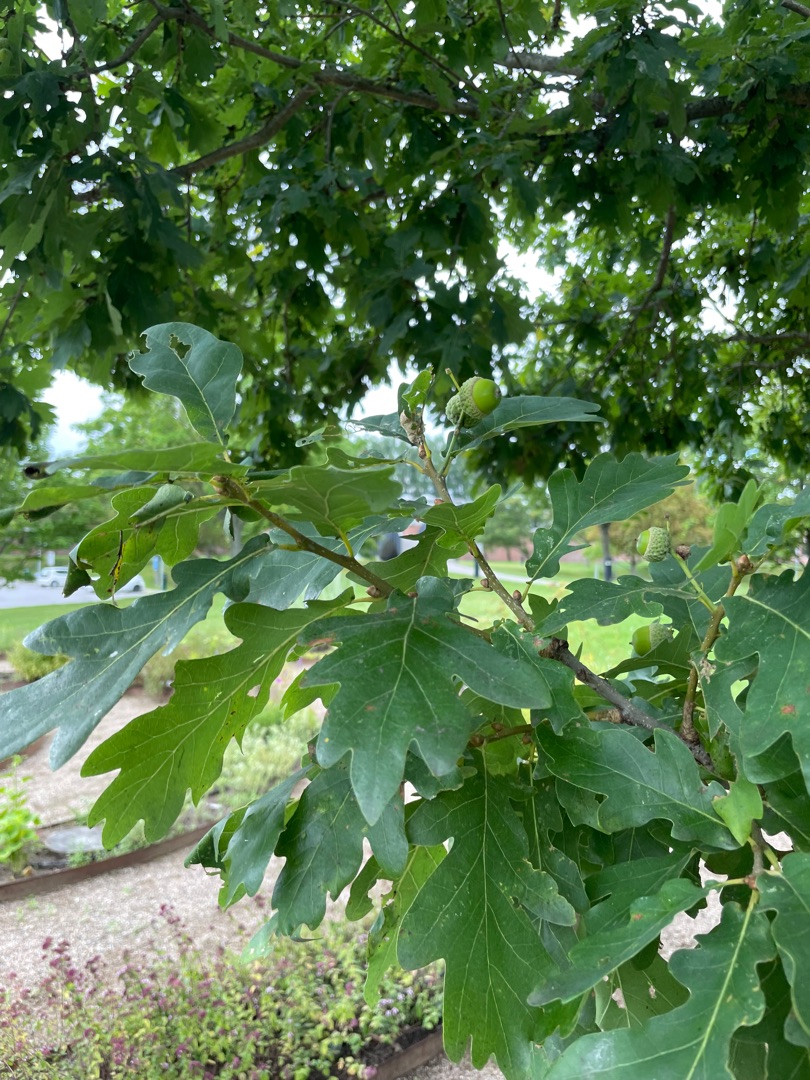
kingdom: Plantae
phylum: Tracheophyta
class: Magnoliopsida
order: Fagales
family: Fagaceae
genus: Quercus
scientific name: Quercus robur
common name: Stilk-eg/almindelig eg
